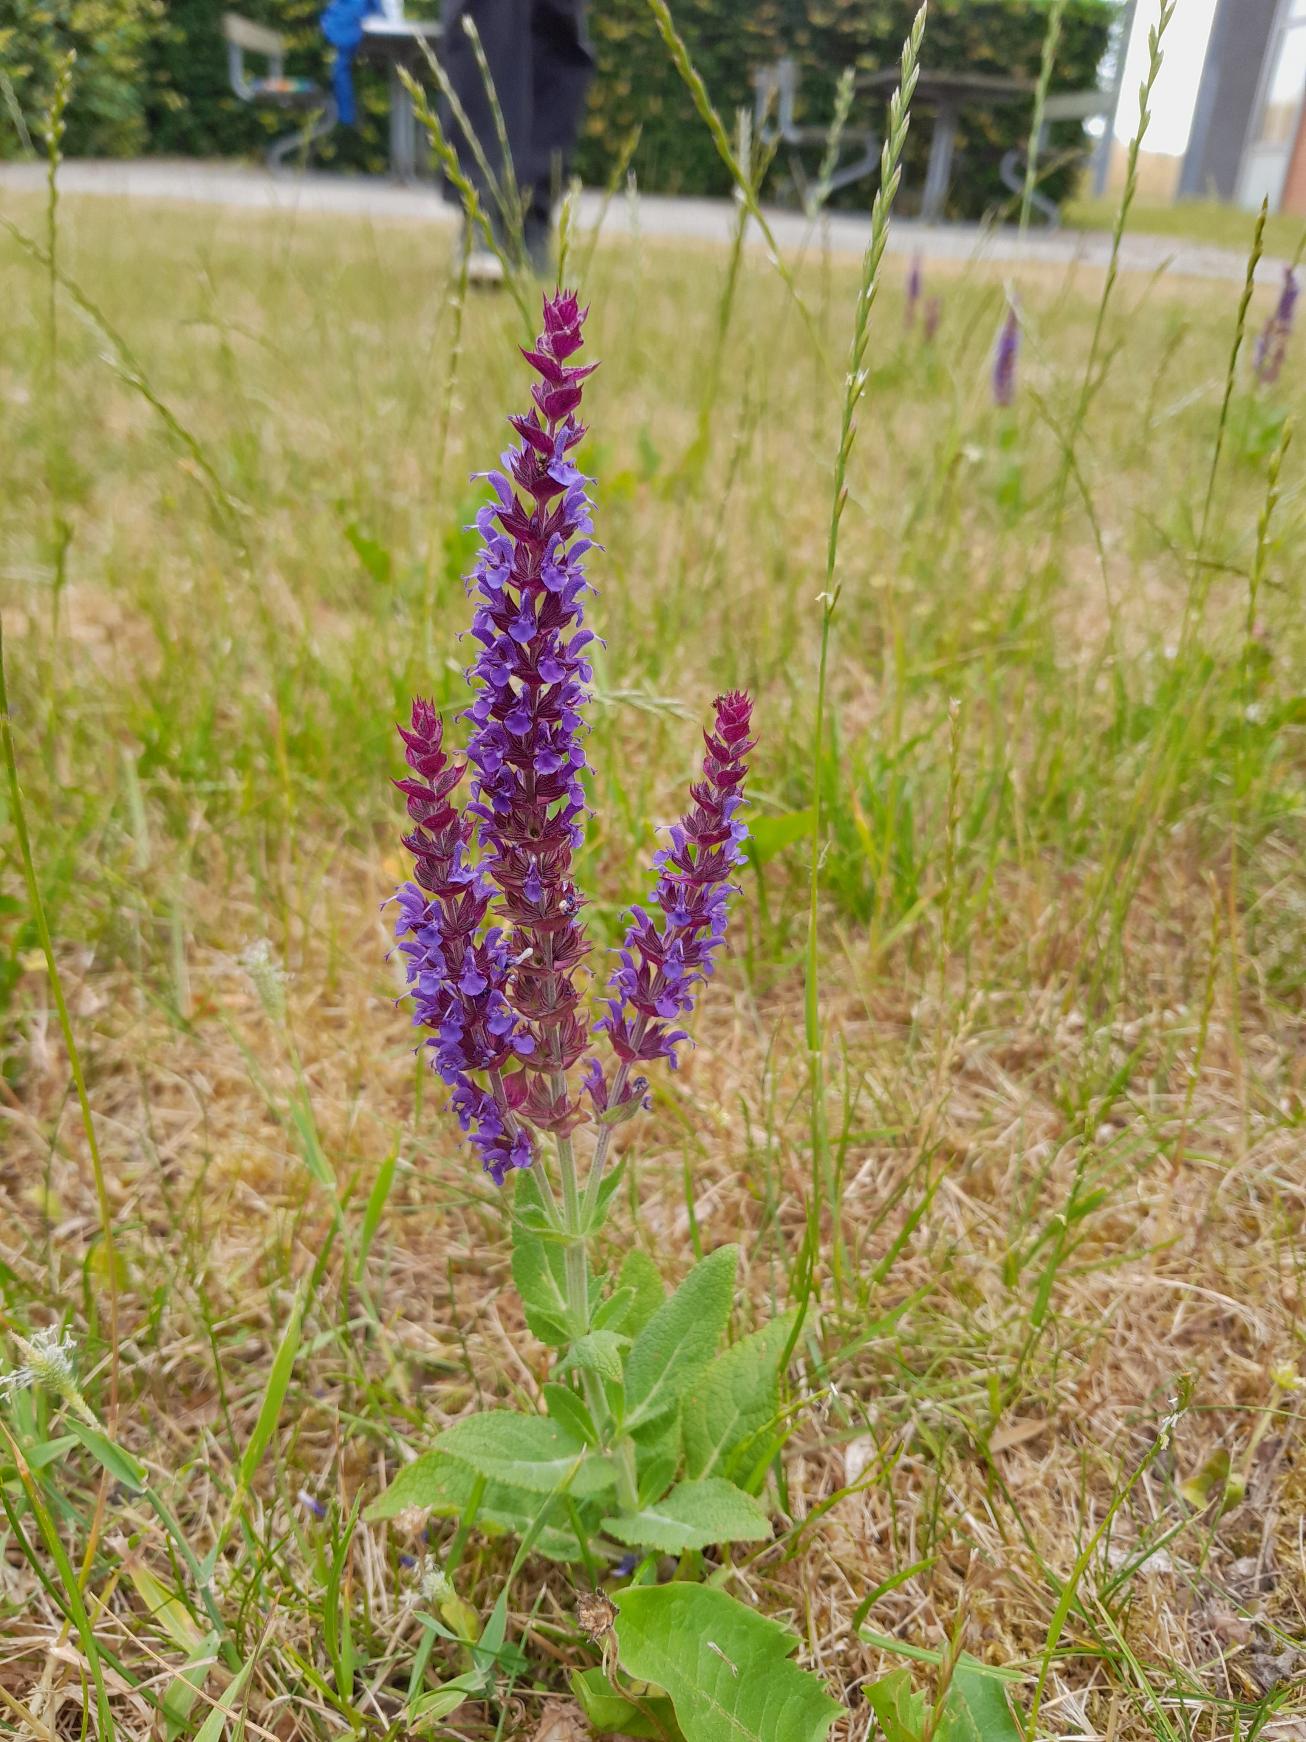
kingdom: Plantae
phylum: Tracheophyta
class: Magnoliopsida
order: Lamiales
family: Lamiaceae
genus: Salvia
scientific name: Salvia nemorosa
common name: Småblomstret salvie
